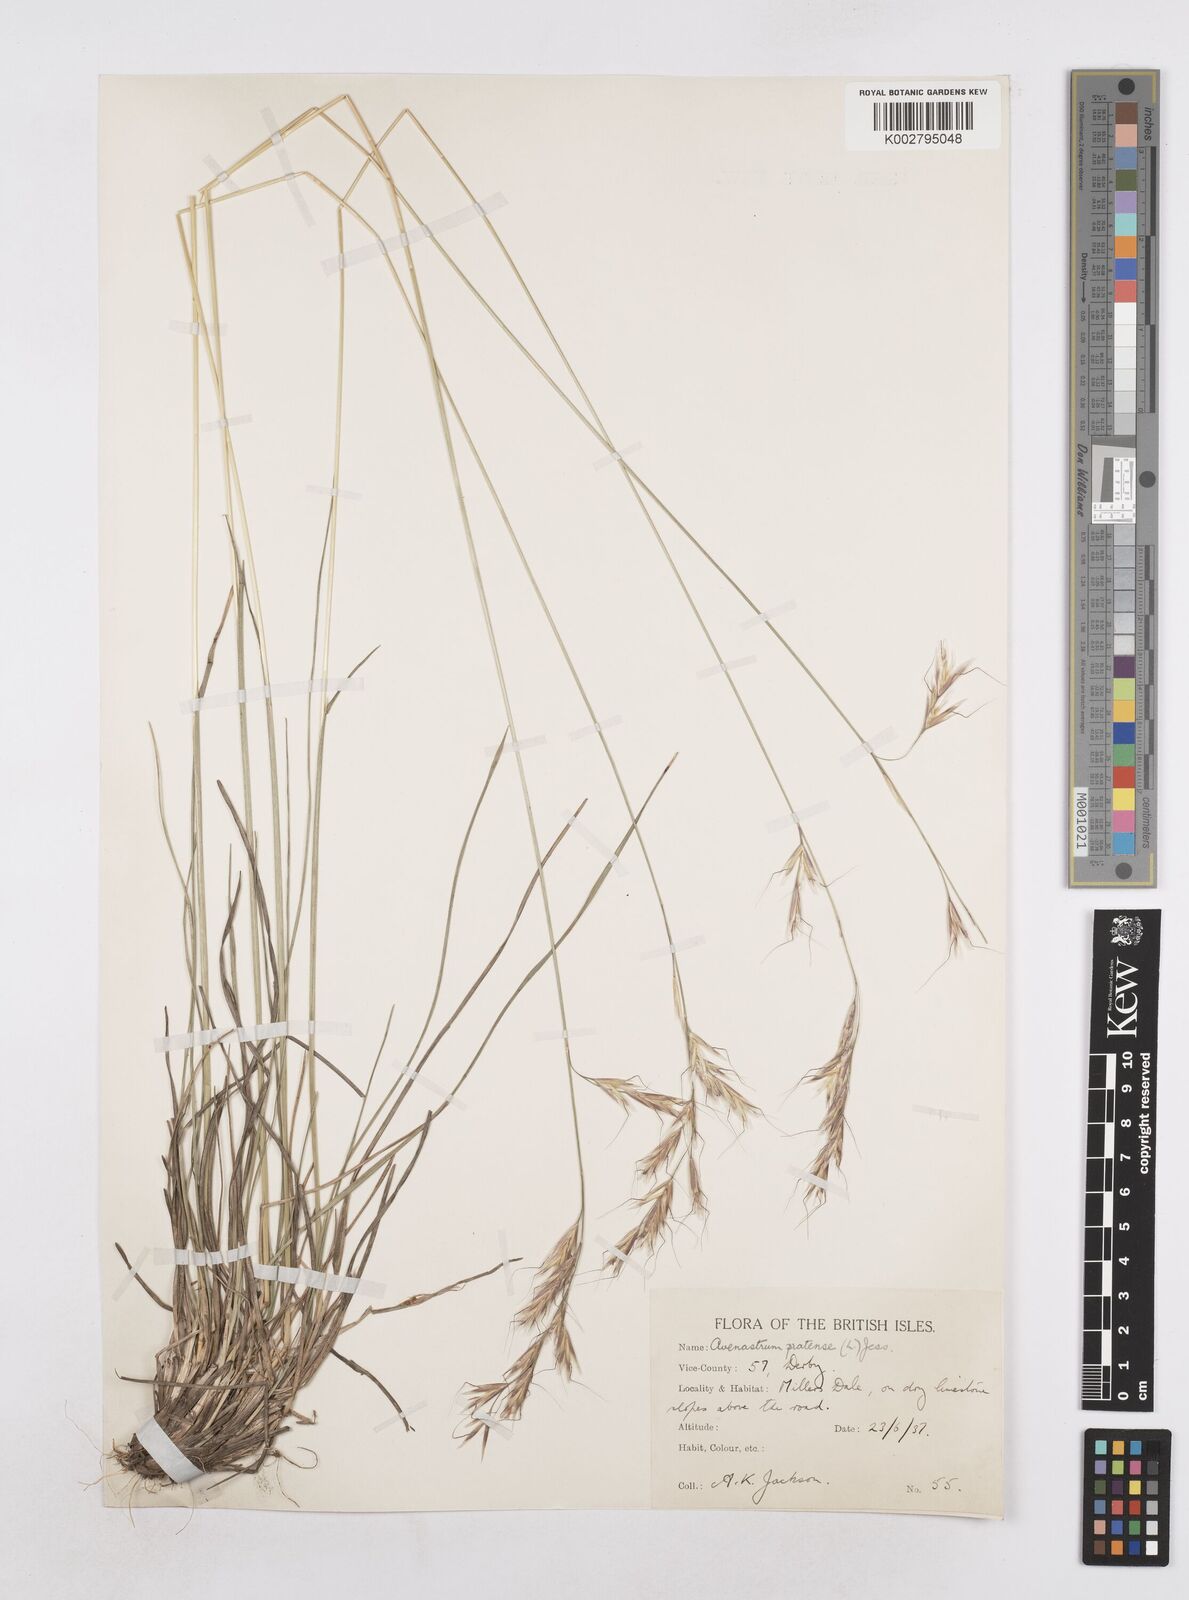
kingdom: Plantae
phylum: Tracheophyta
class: Liliopsida
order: Poales
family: Poaceae
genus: Helictochloa
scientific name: Helictochloa pratensis
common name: Meadow oat grass
